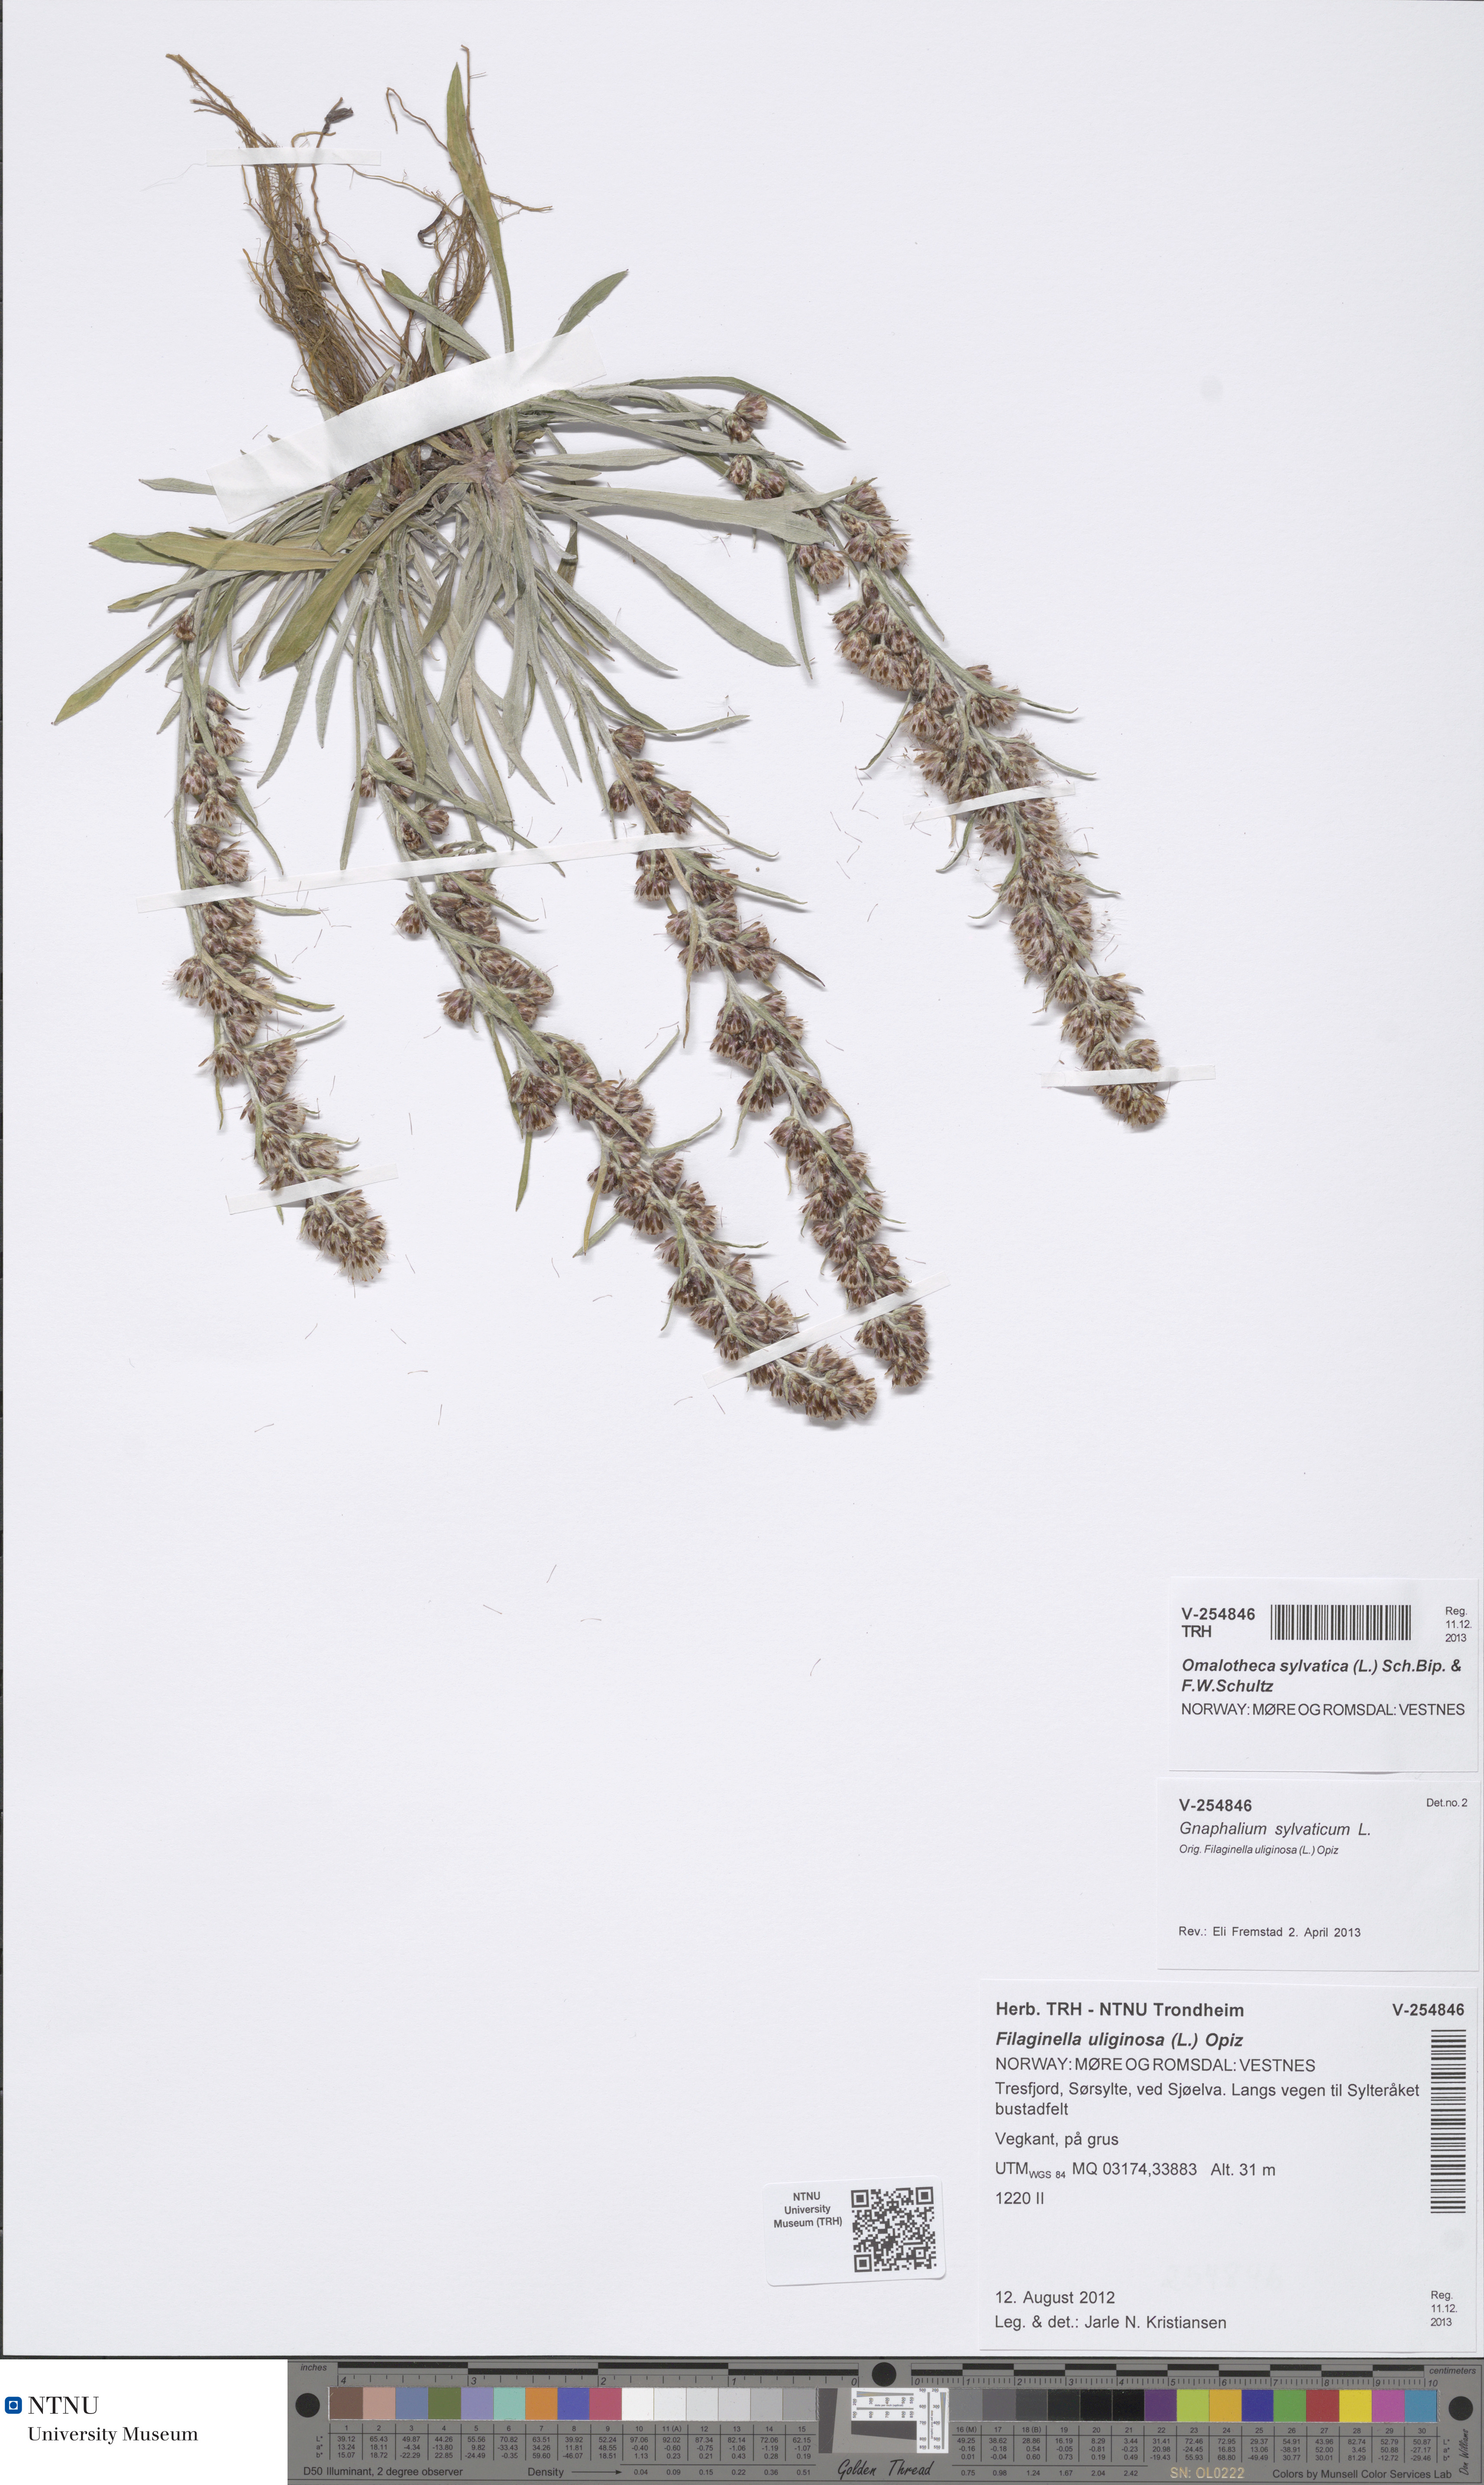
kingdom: Plantae
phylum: Tracheophyta
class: Magnoliopsida
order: Asterales
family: Asteraceae
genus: Omalotheca
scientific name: Omalotheca sylvatica
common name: Heath cudweed
